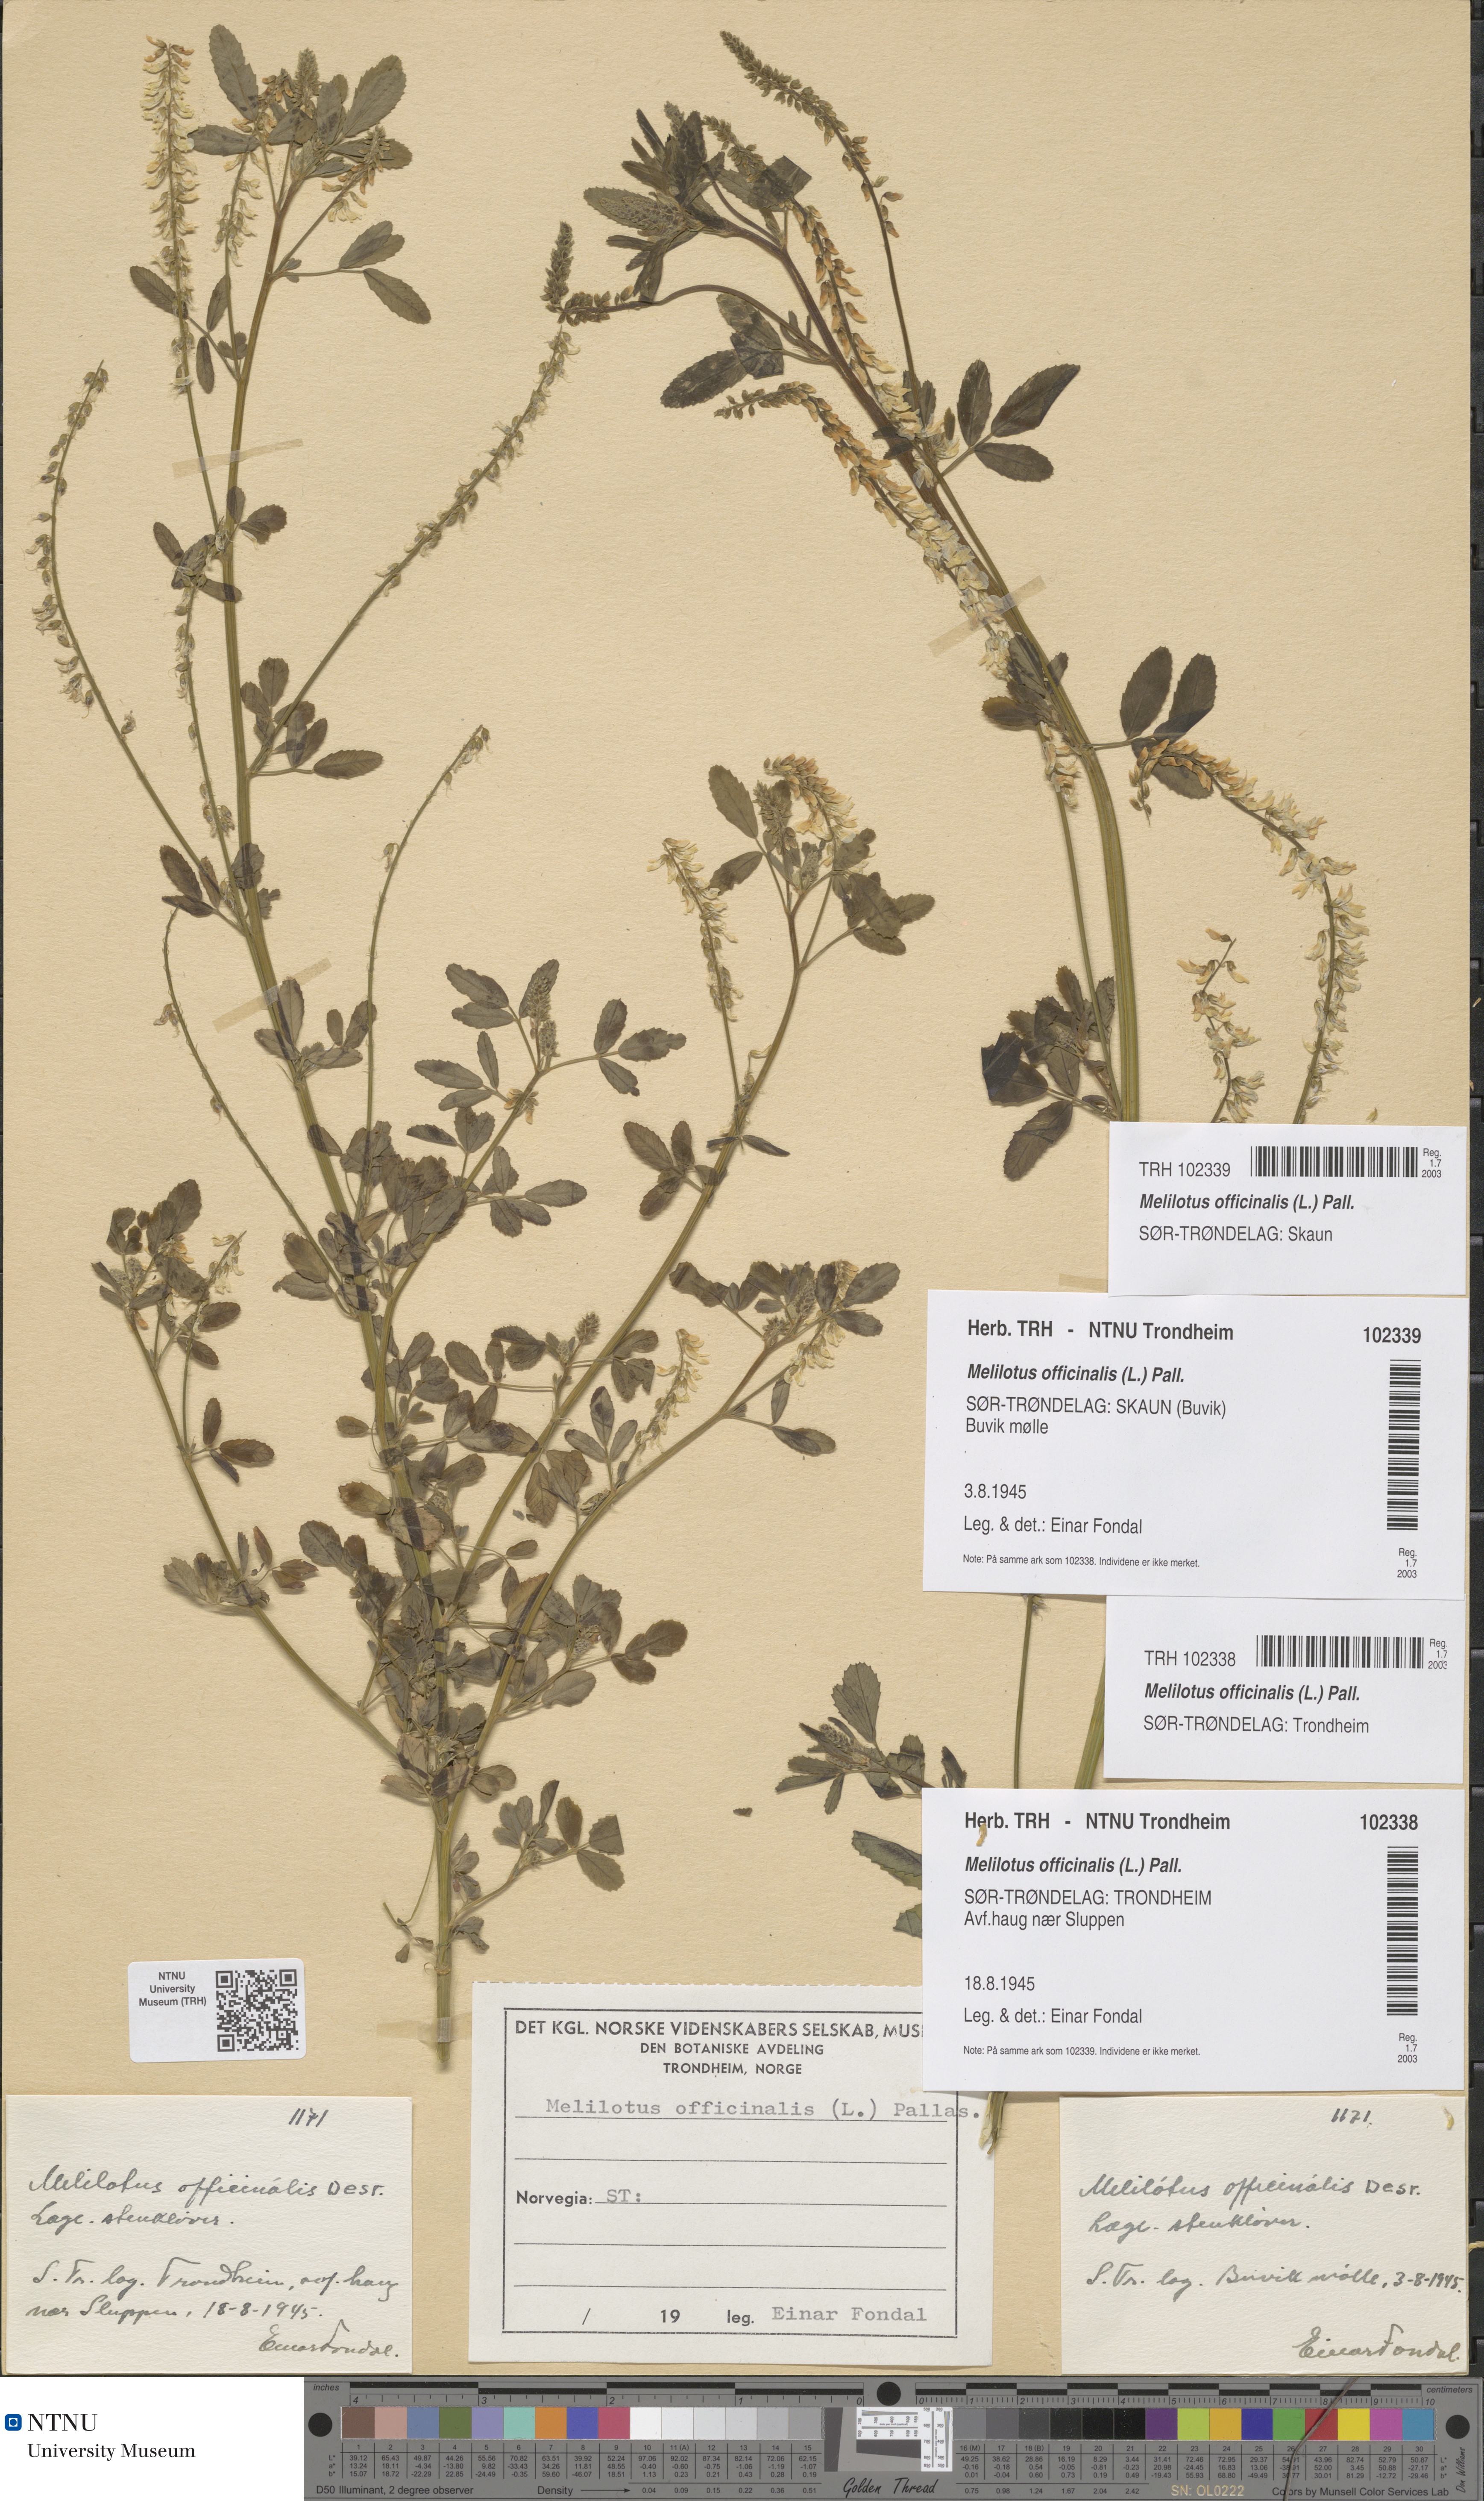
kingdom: Plantae
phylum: Tracheophyta
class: Magnoliopsida
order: Fabales
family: Fabaceae
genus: Melilotus
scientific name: Melilotus officinalis
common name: Sweetclover
